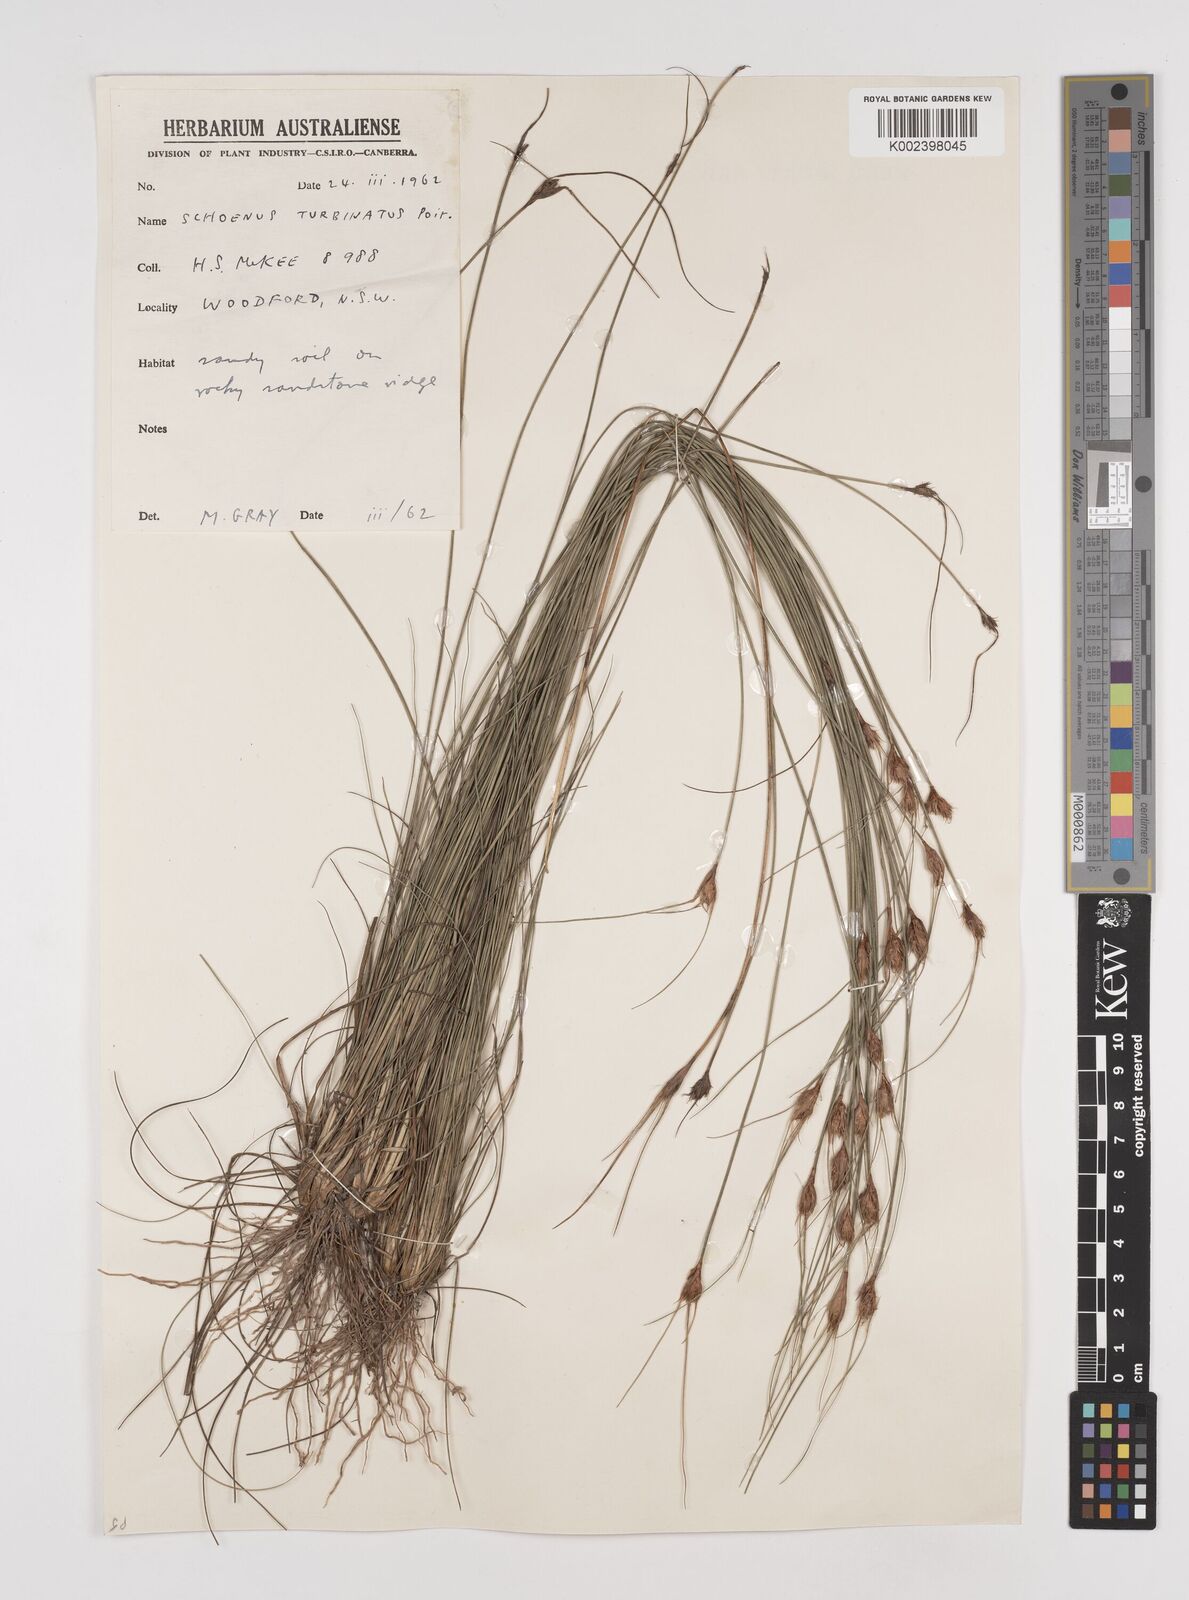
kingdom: Plantae
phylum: Tracheophyta
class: Liliopsida
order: Poales
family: Cyperaceae
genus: Schoenus
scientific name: Schoenus turbinatus
